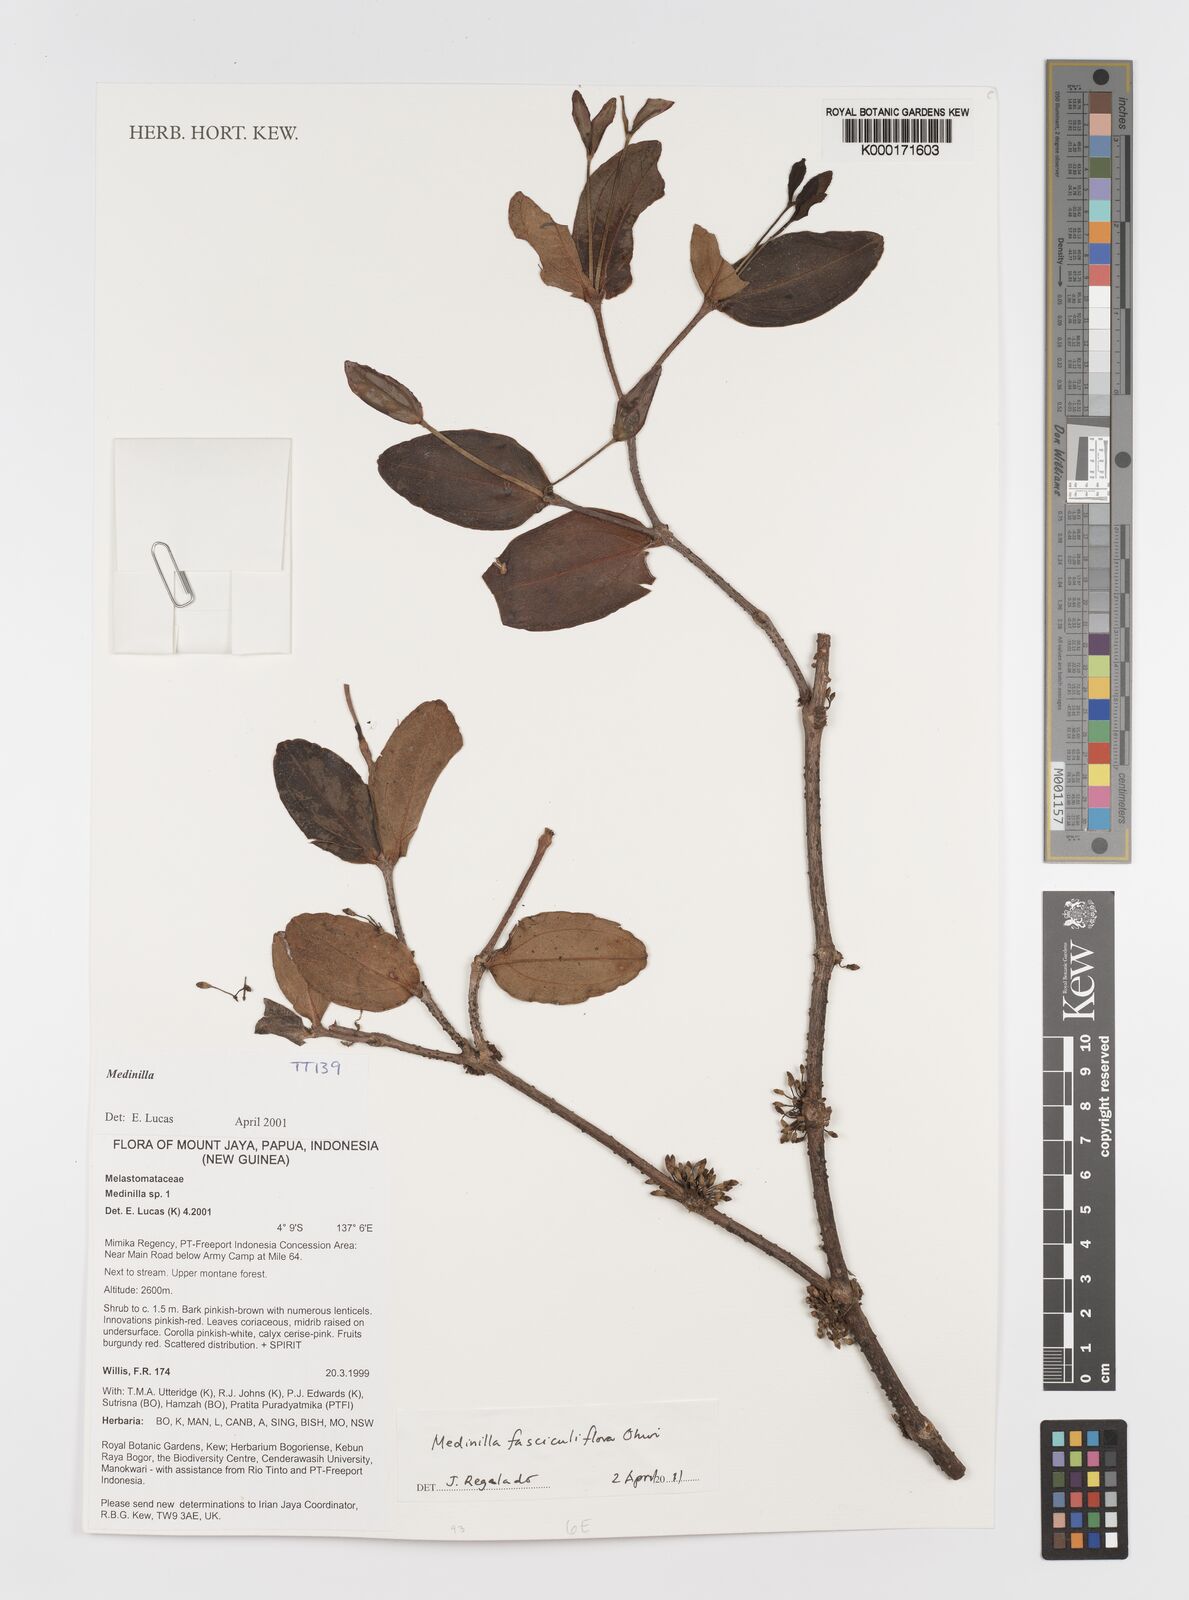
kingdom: Plantae
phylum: Tracheophyta
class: Magnoliopsida
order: Myrtales
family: Melastomataceae
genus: Medinilla
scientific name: Medinilla fasciculiflora
